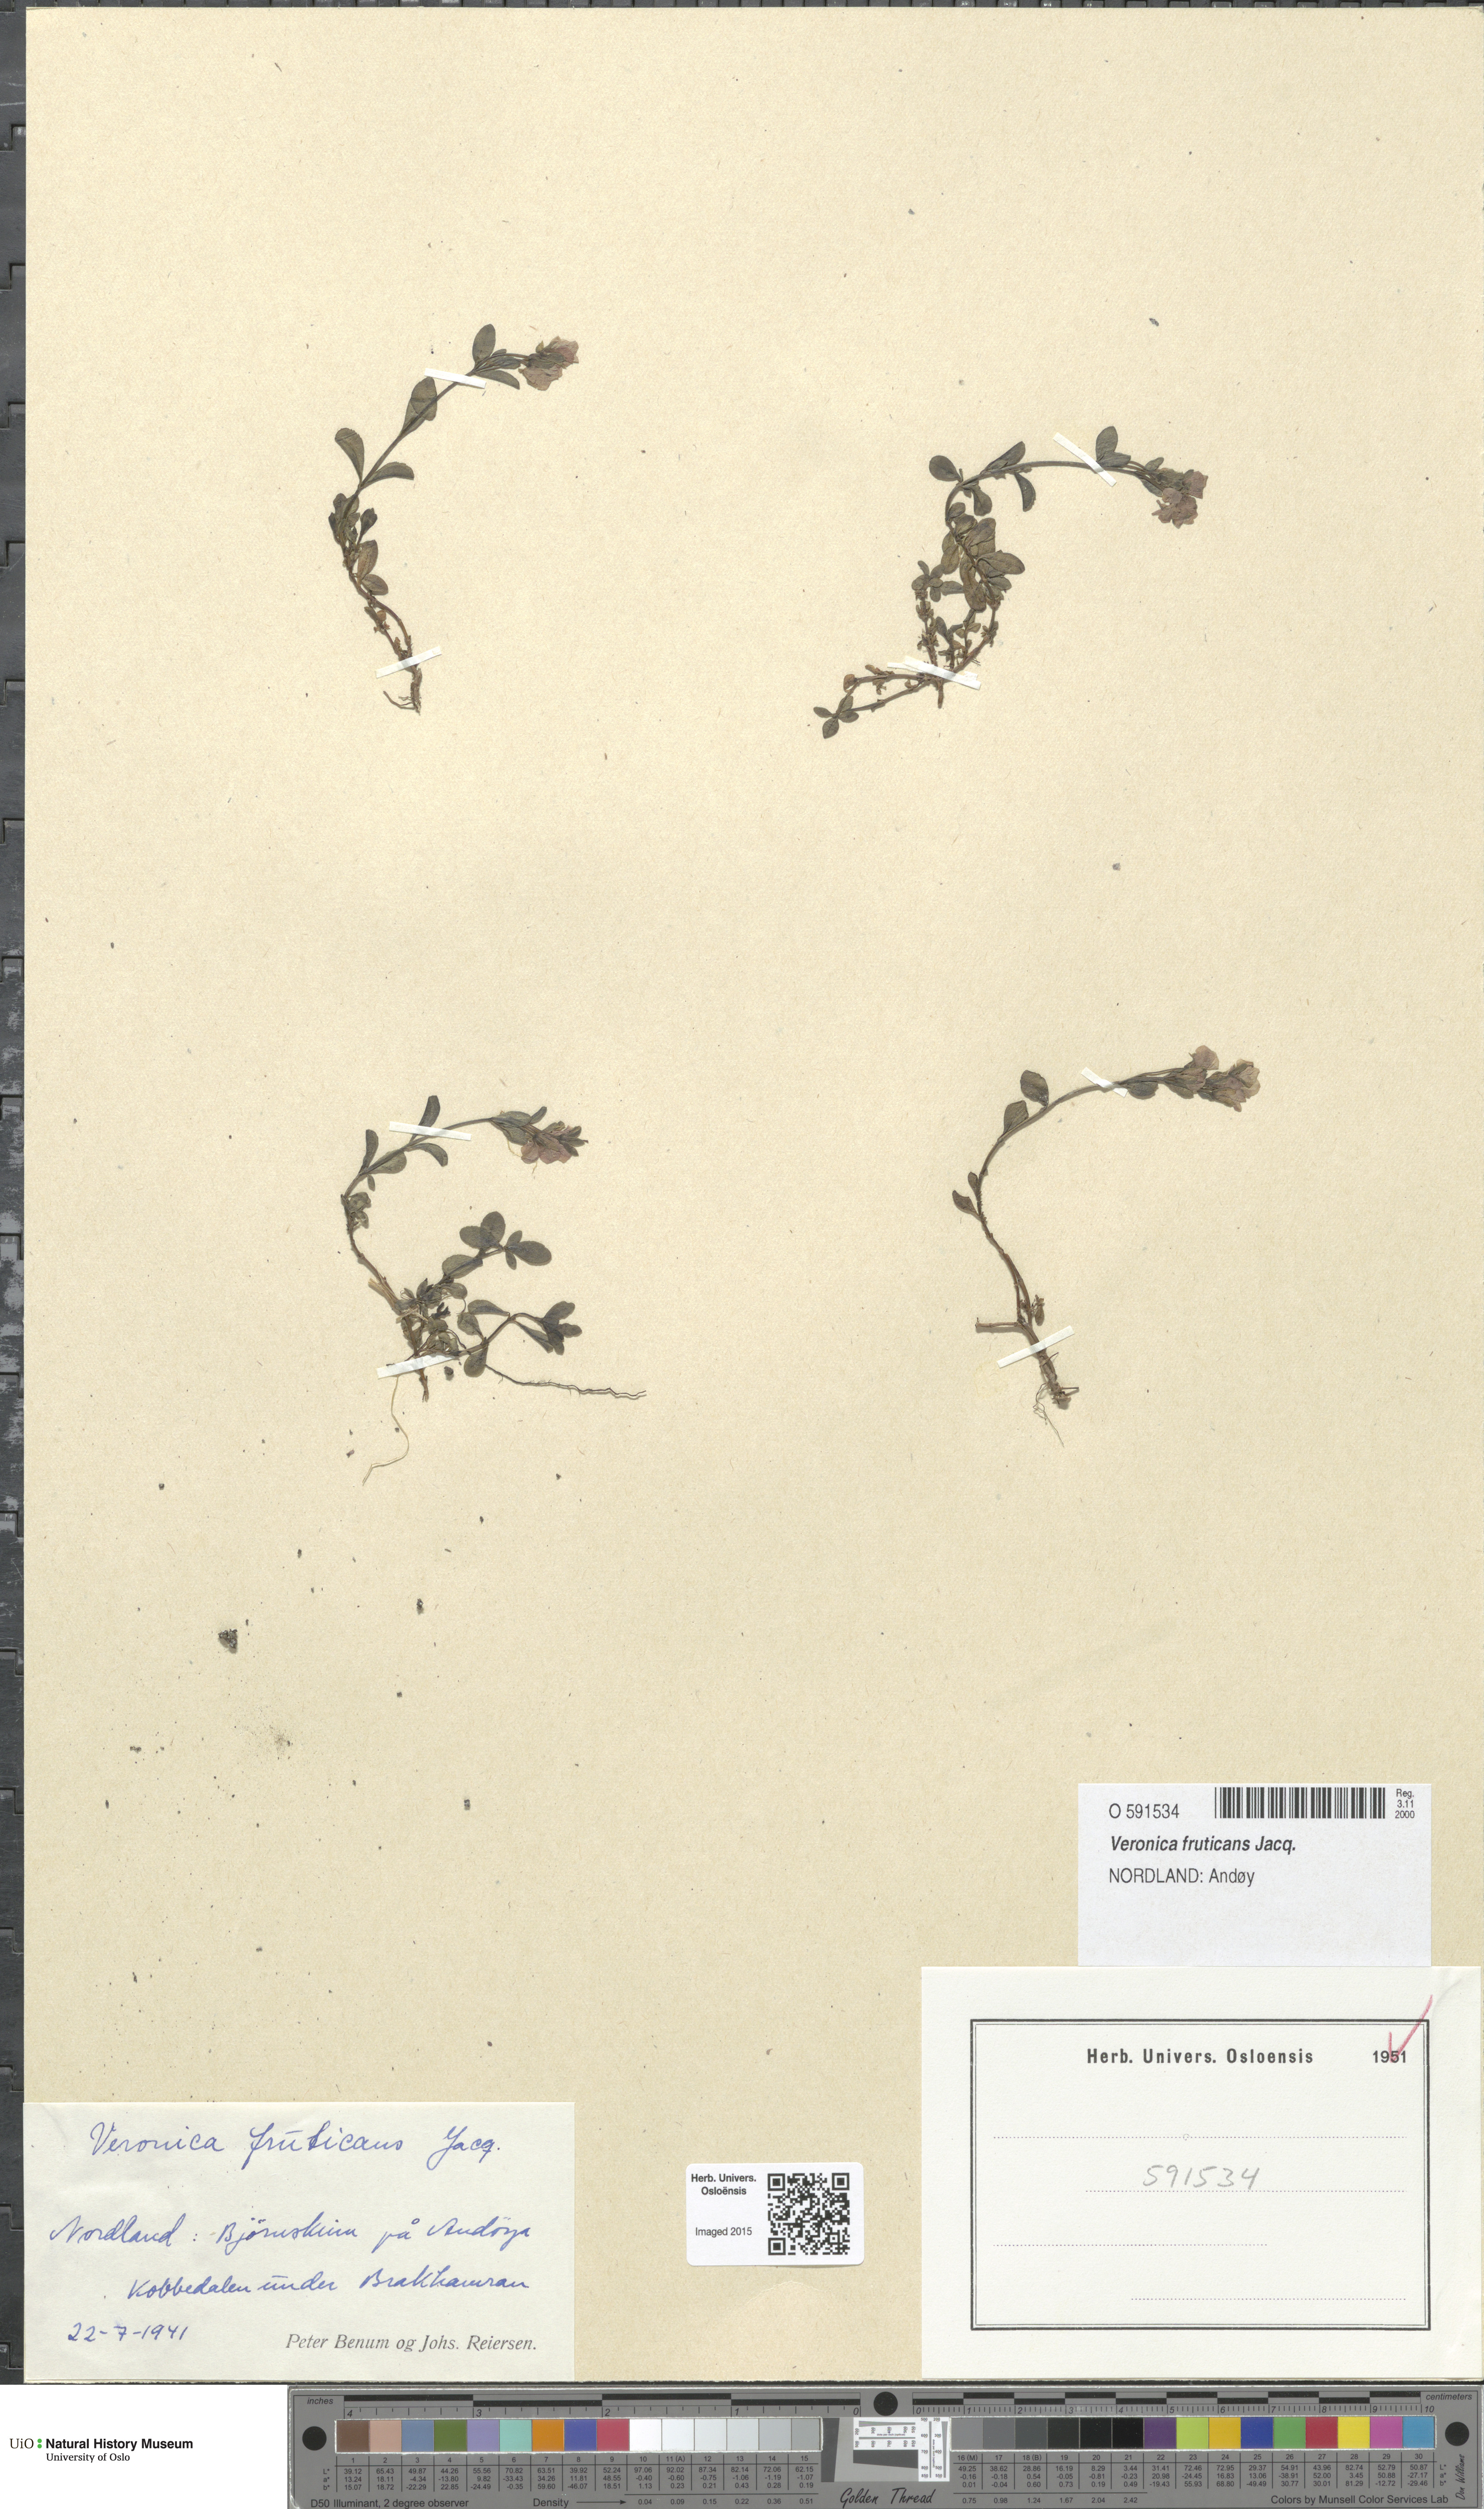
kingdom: Plantae
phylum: Tracheophyta
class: Magnoliopsida
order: Lamiales
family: Plantaginaceae
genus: Veronica
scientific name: Veronica fruticans
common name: Rock speedwell
